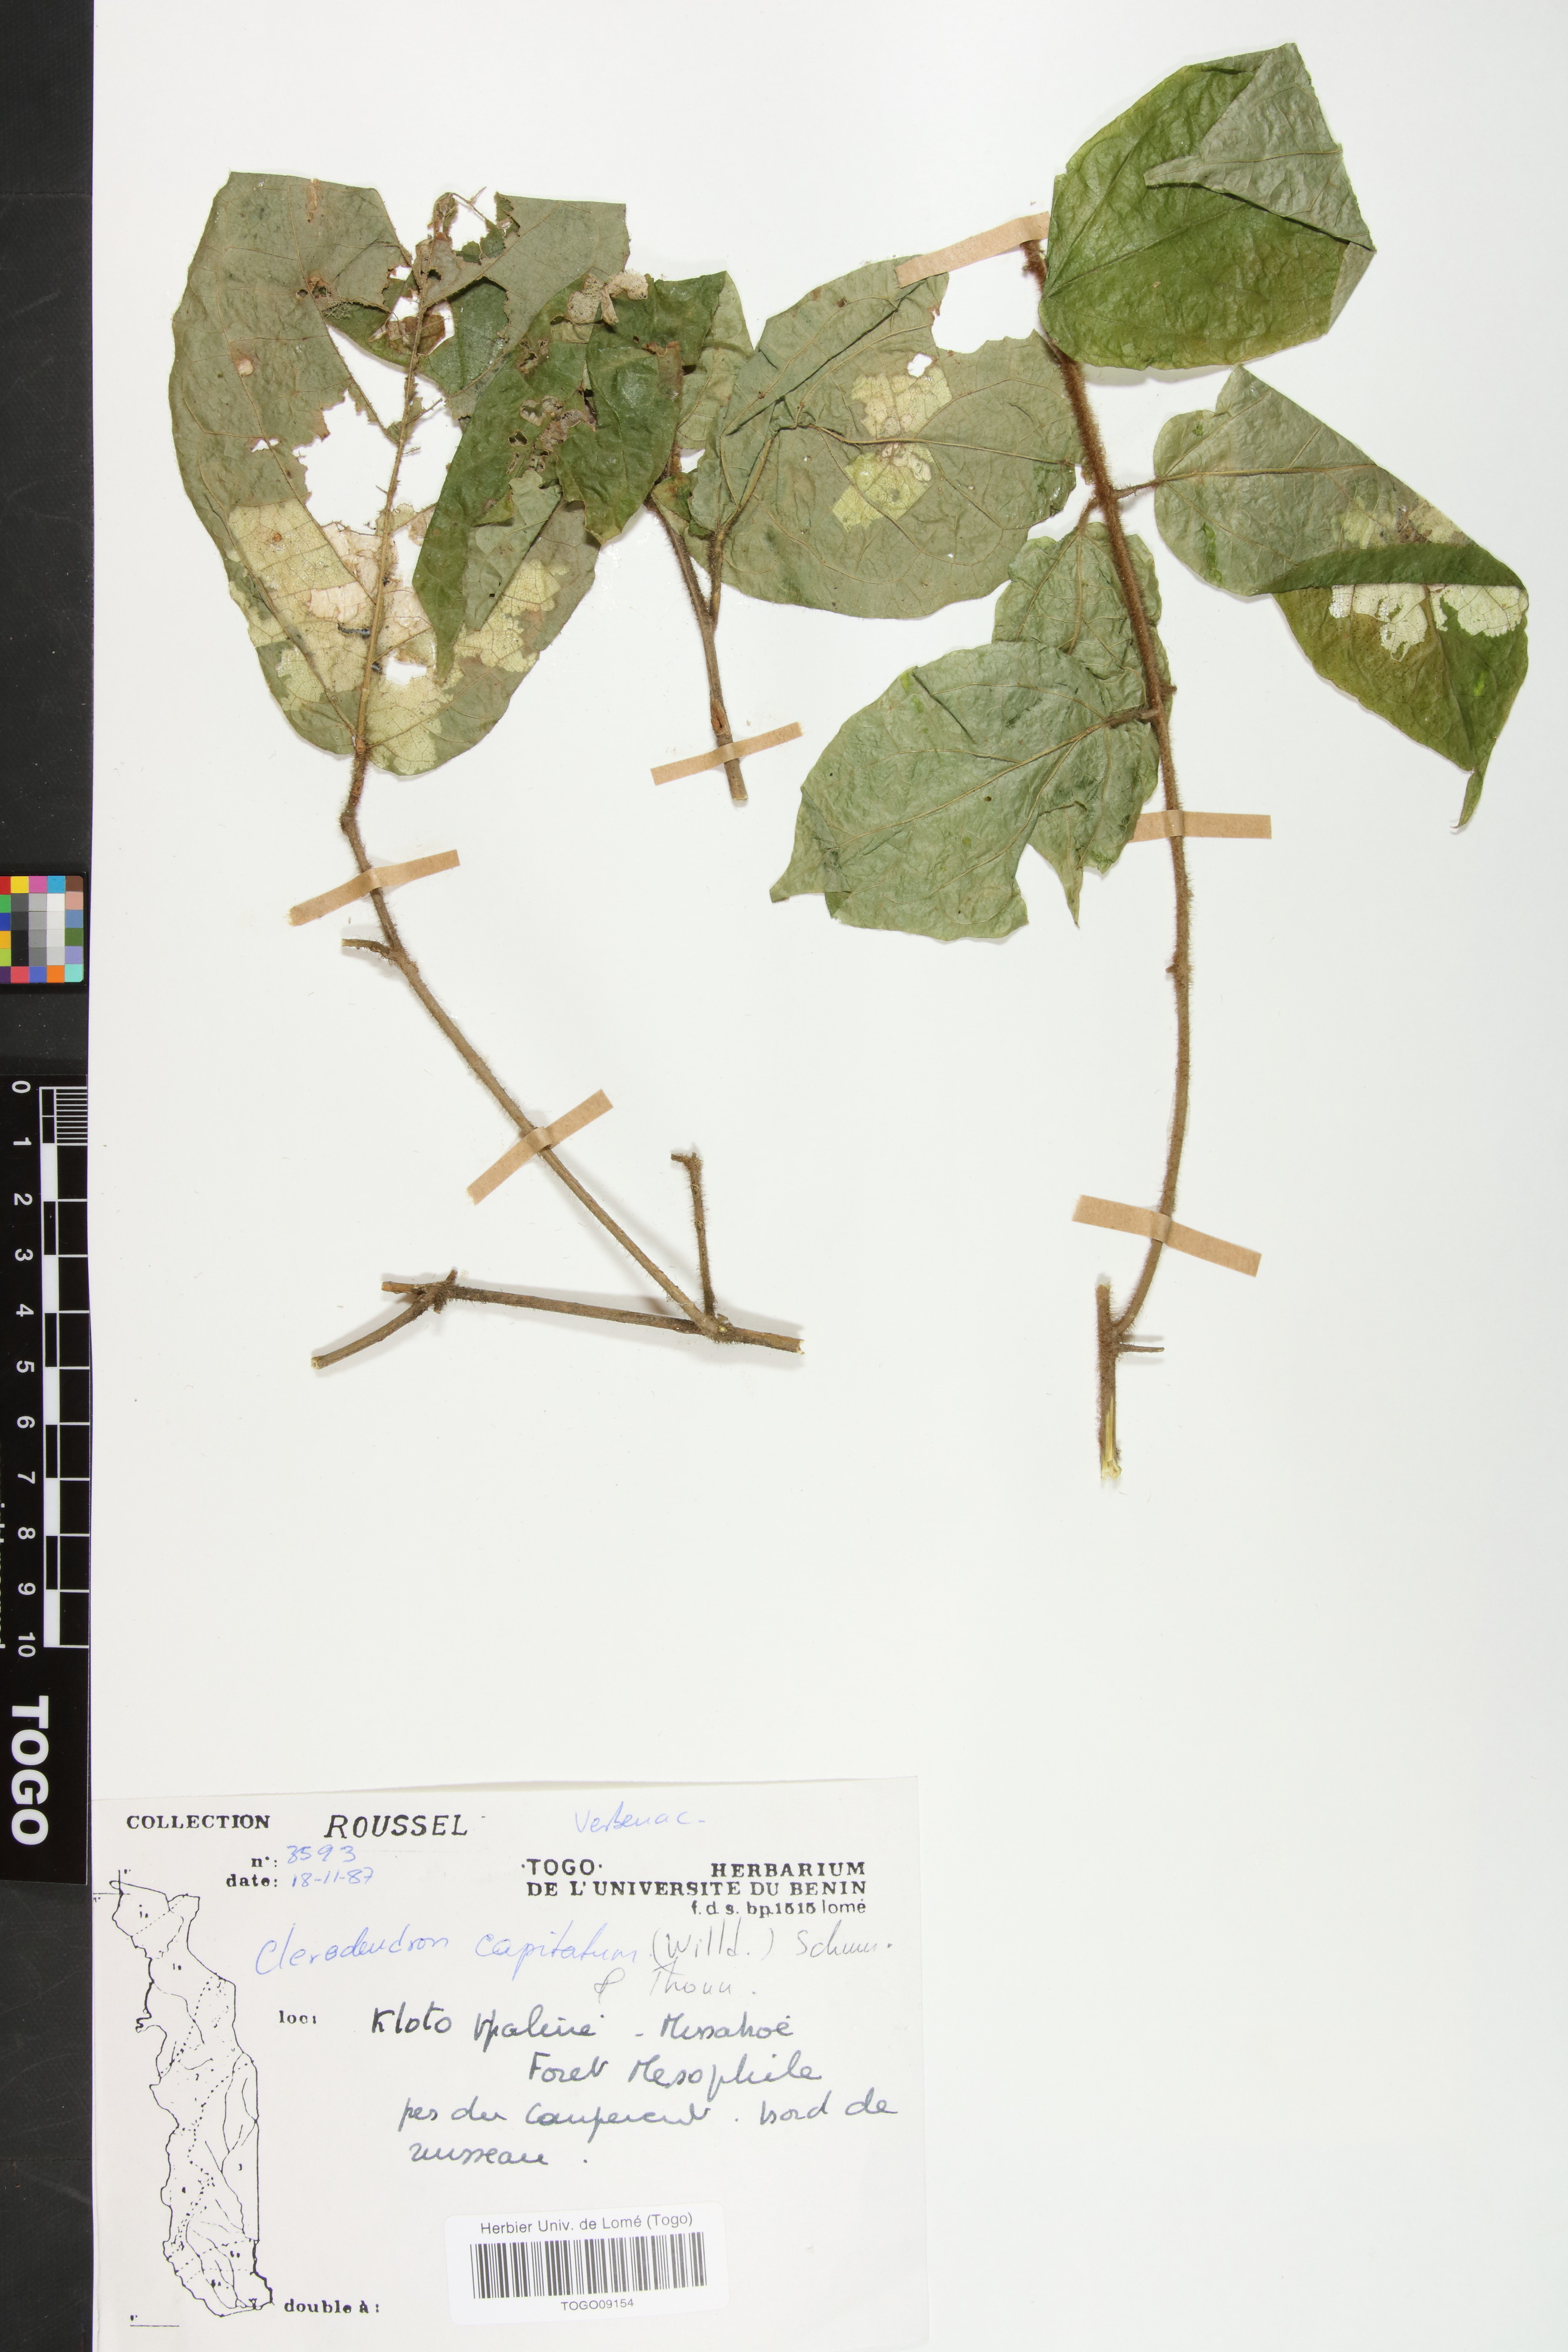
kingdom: Plantae
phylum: Tracheophyta
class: Magnoliopsida
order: Lamiales
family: Lamiaceae
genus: Clerodendrum
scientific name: Clerodendrum
